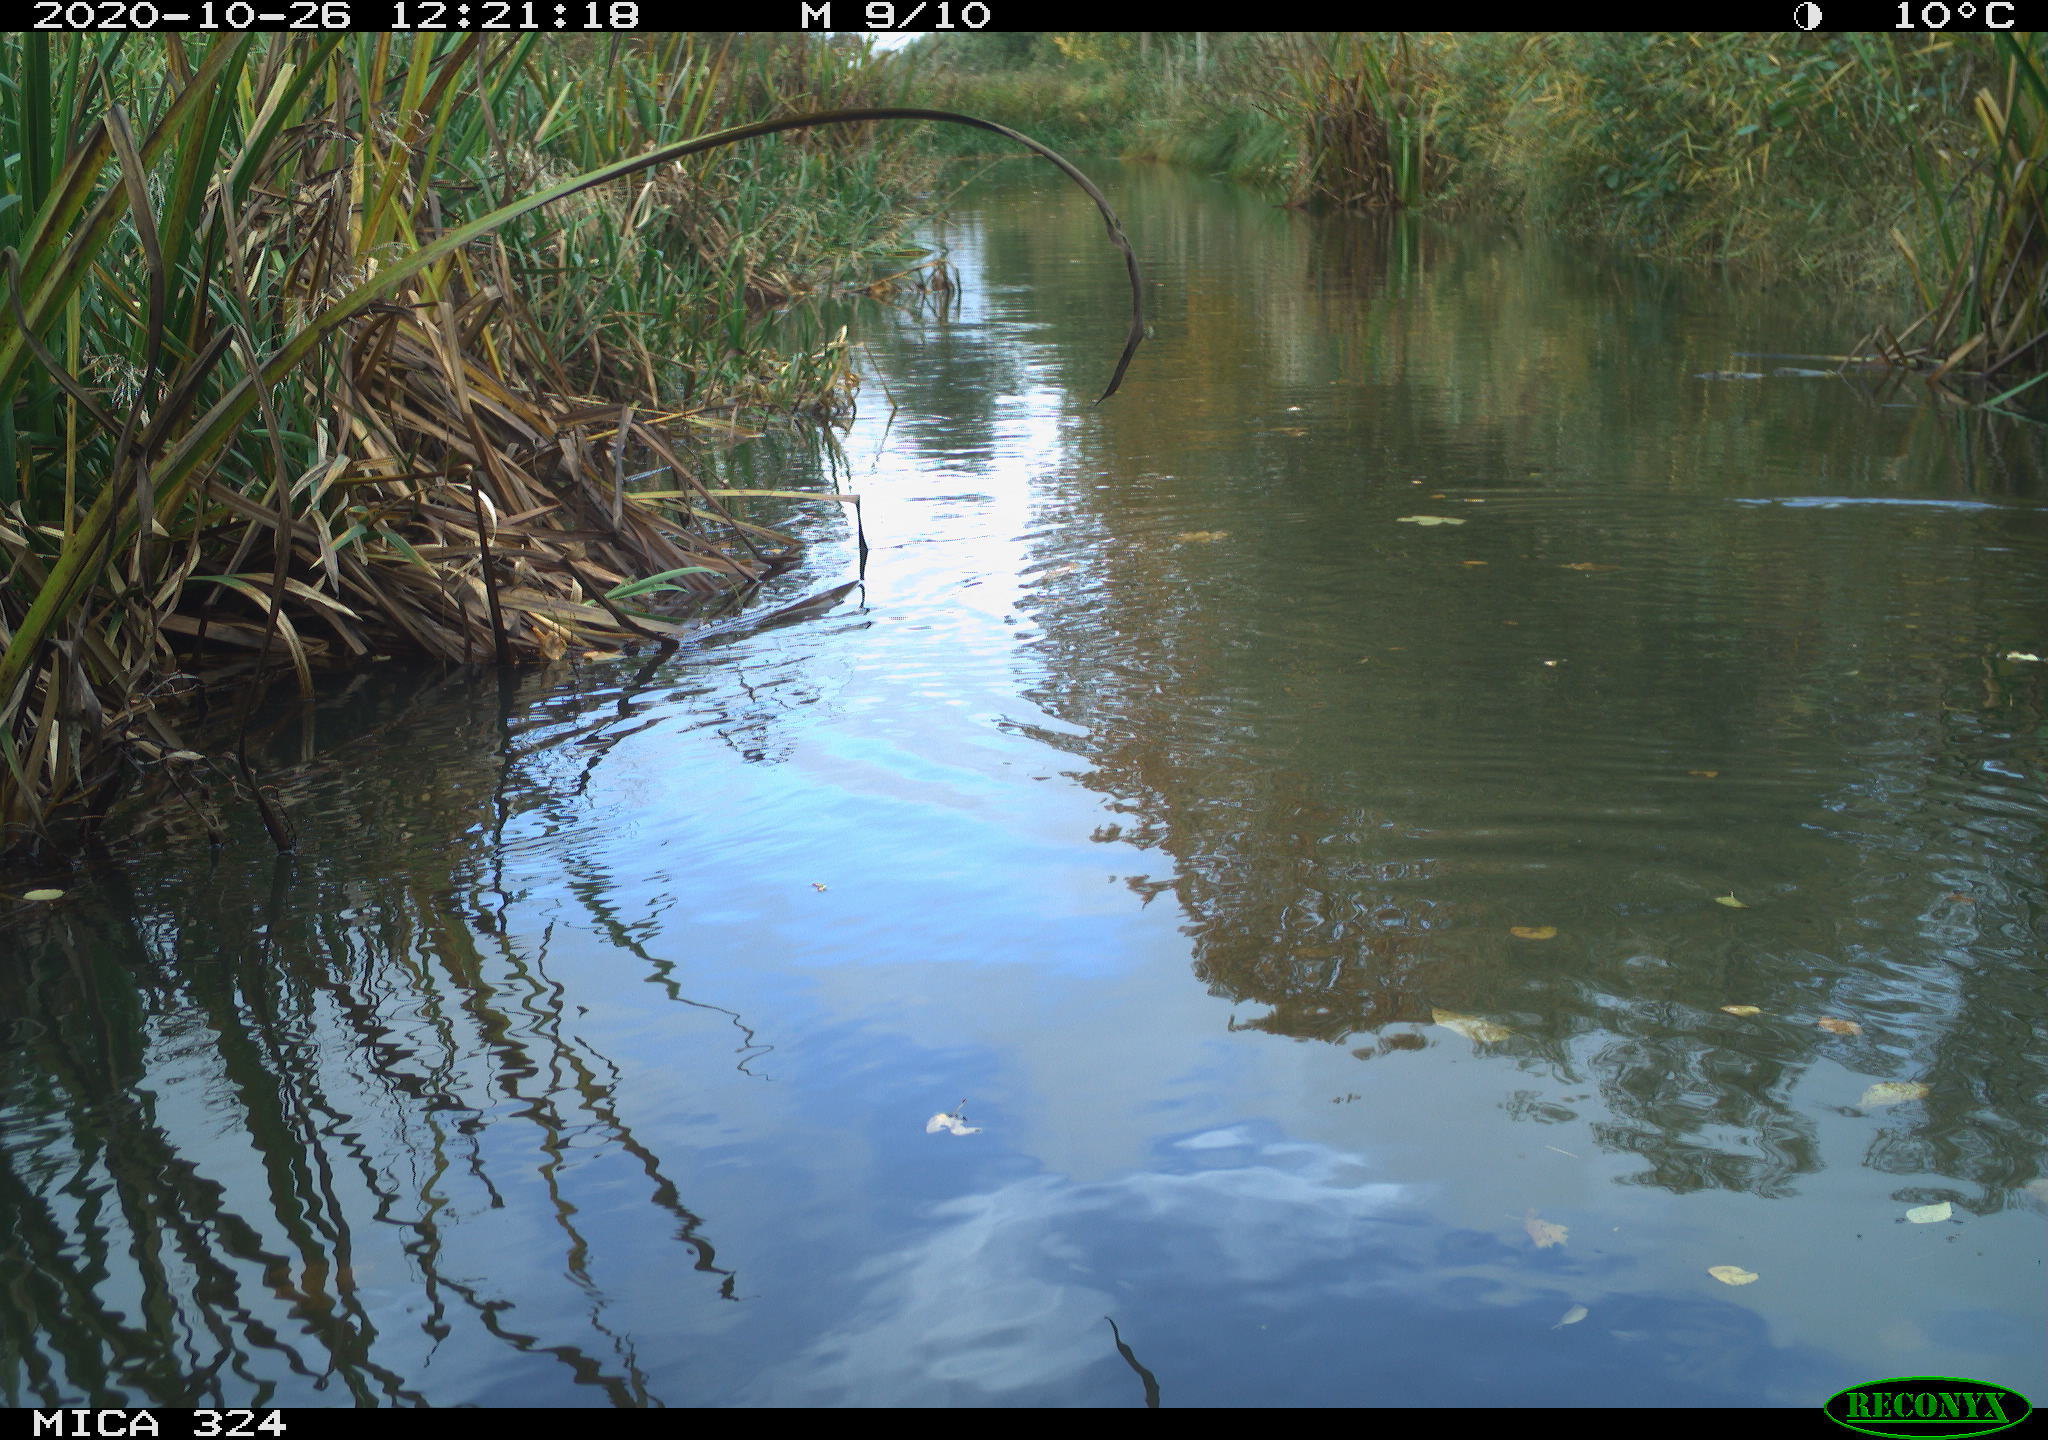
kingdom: Animalia
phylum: Chordata
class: Aves
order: Gruiformes
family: Rallidae
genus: Gallinula
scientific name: Gallinula chloropus
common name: Common moorhen
